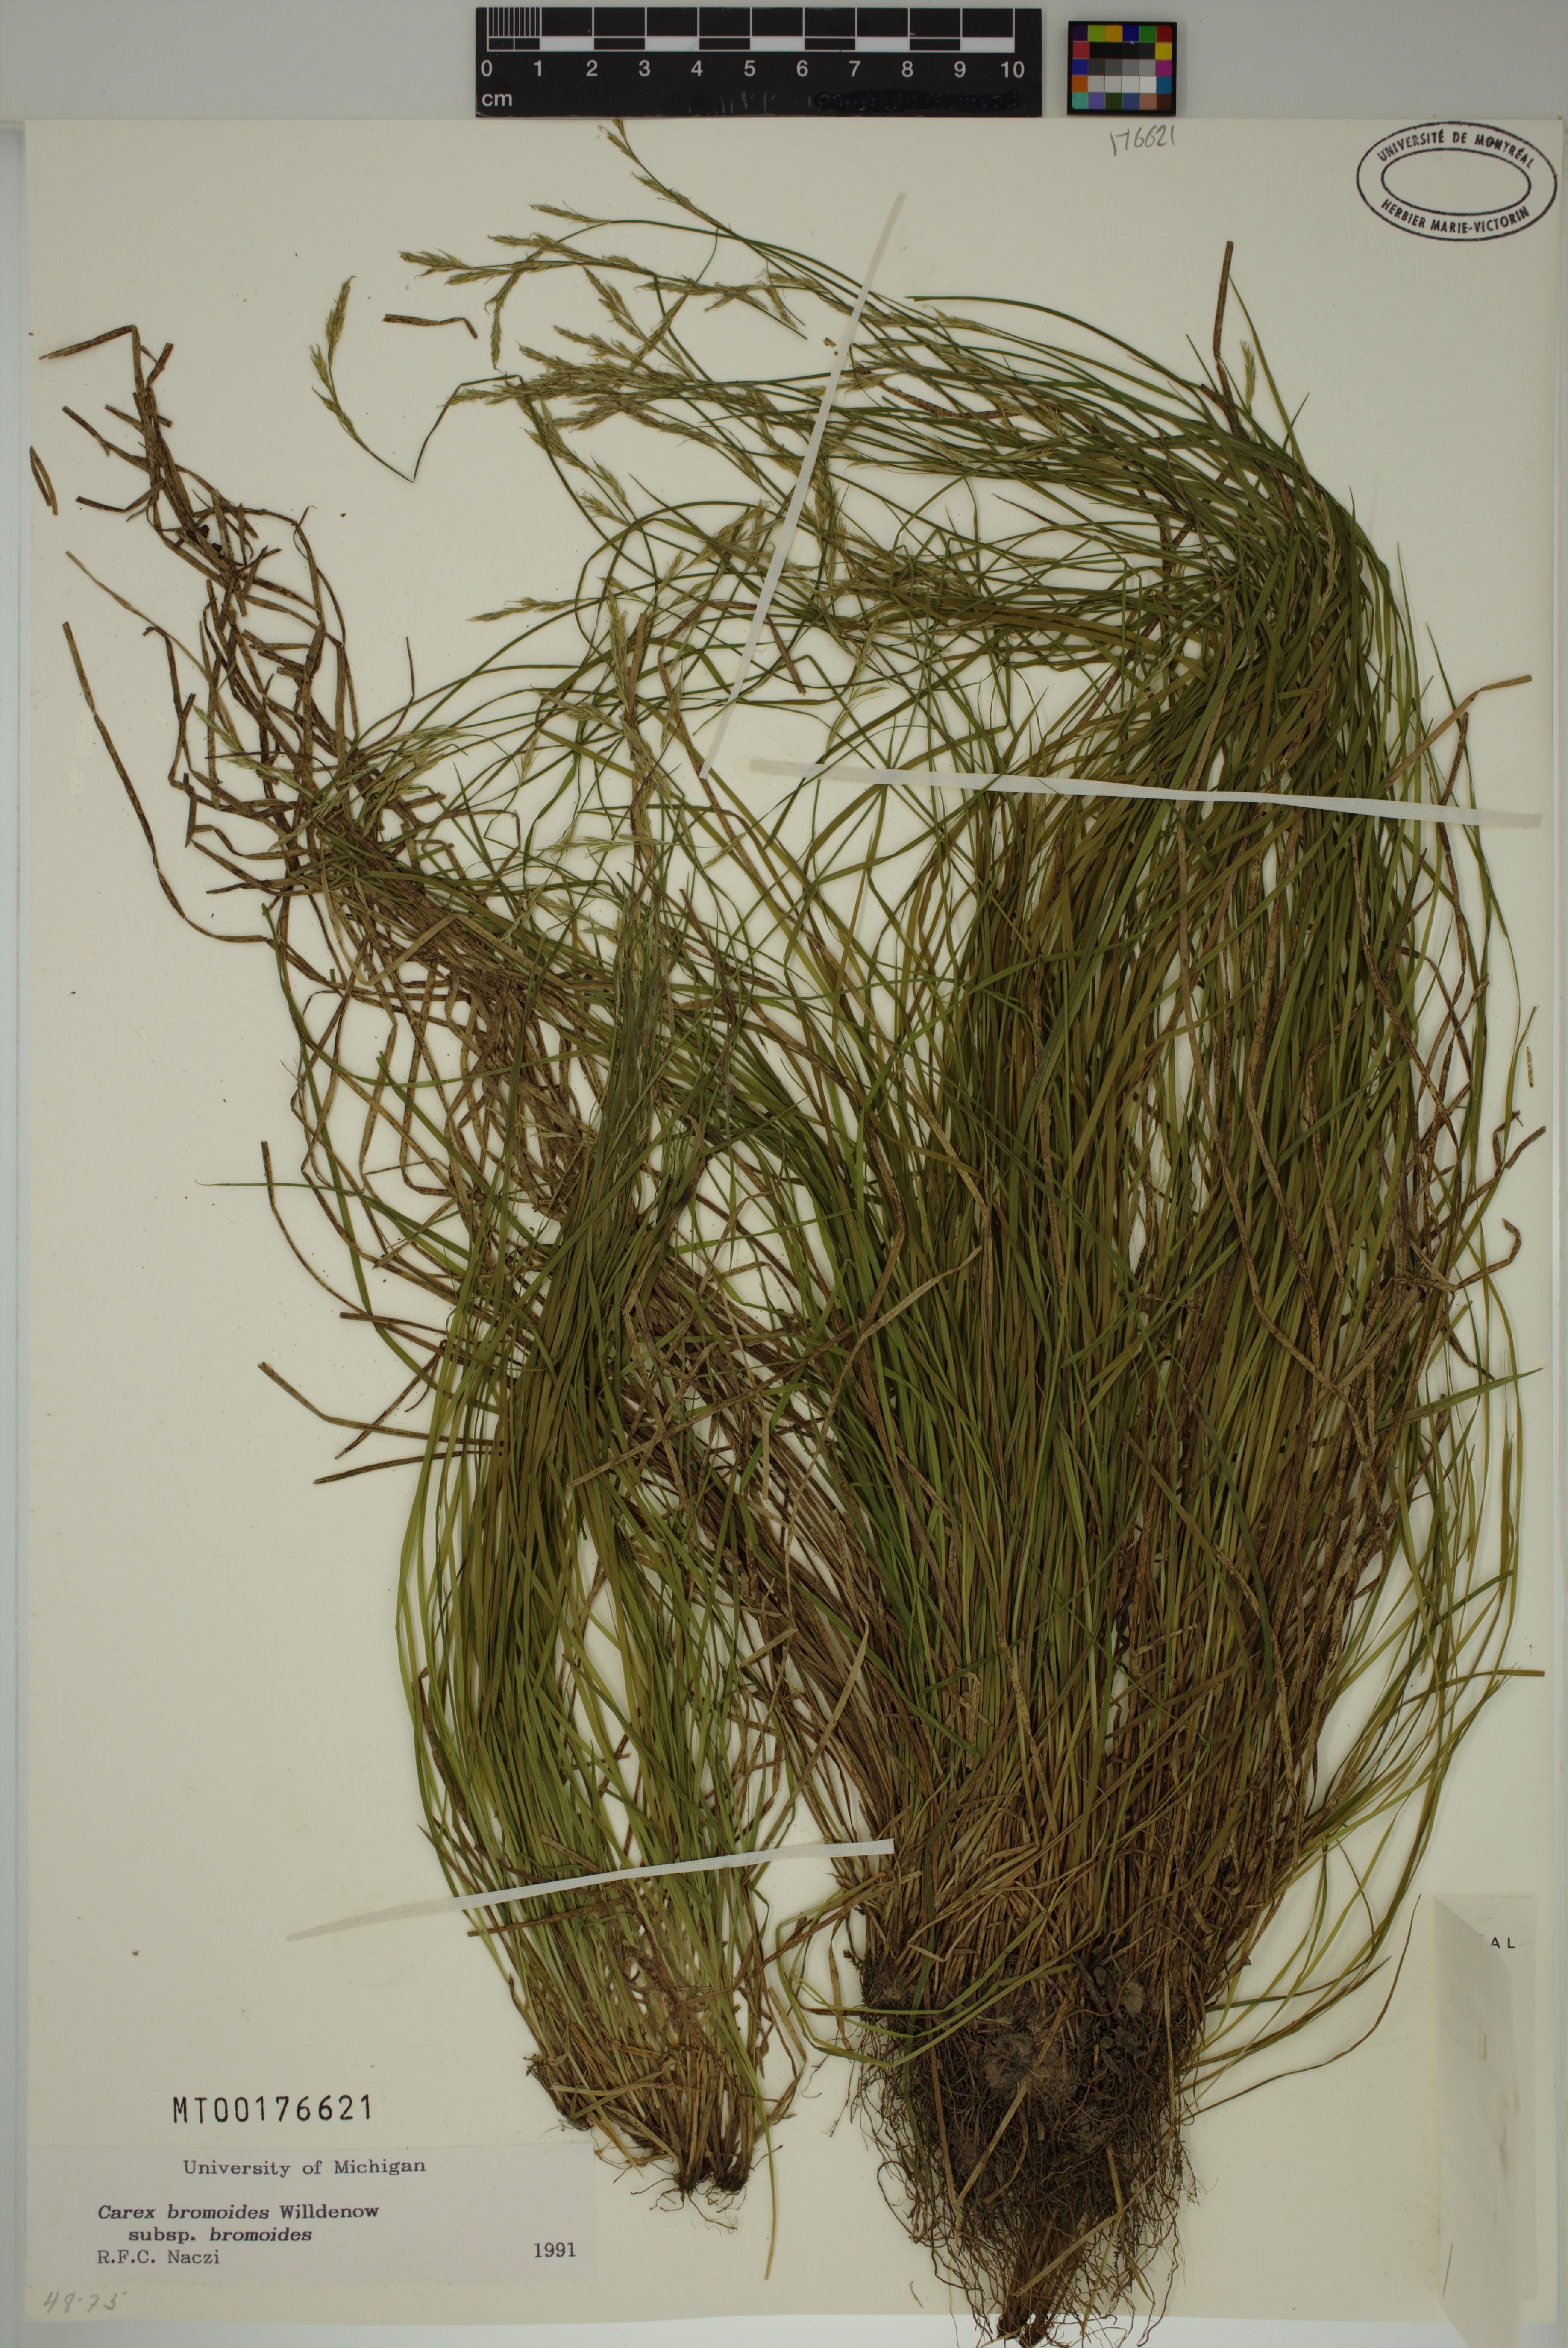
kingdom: Plantae
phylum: Tracheophyta
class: Liliopsida
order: Poales
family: Cyperaceae
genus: Carex
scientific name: Carex bromoides
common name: Brome hummock sedge
